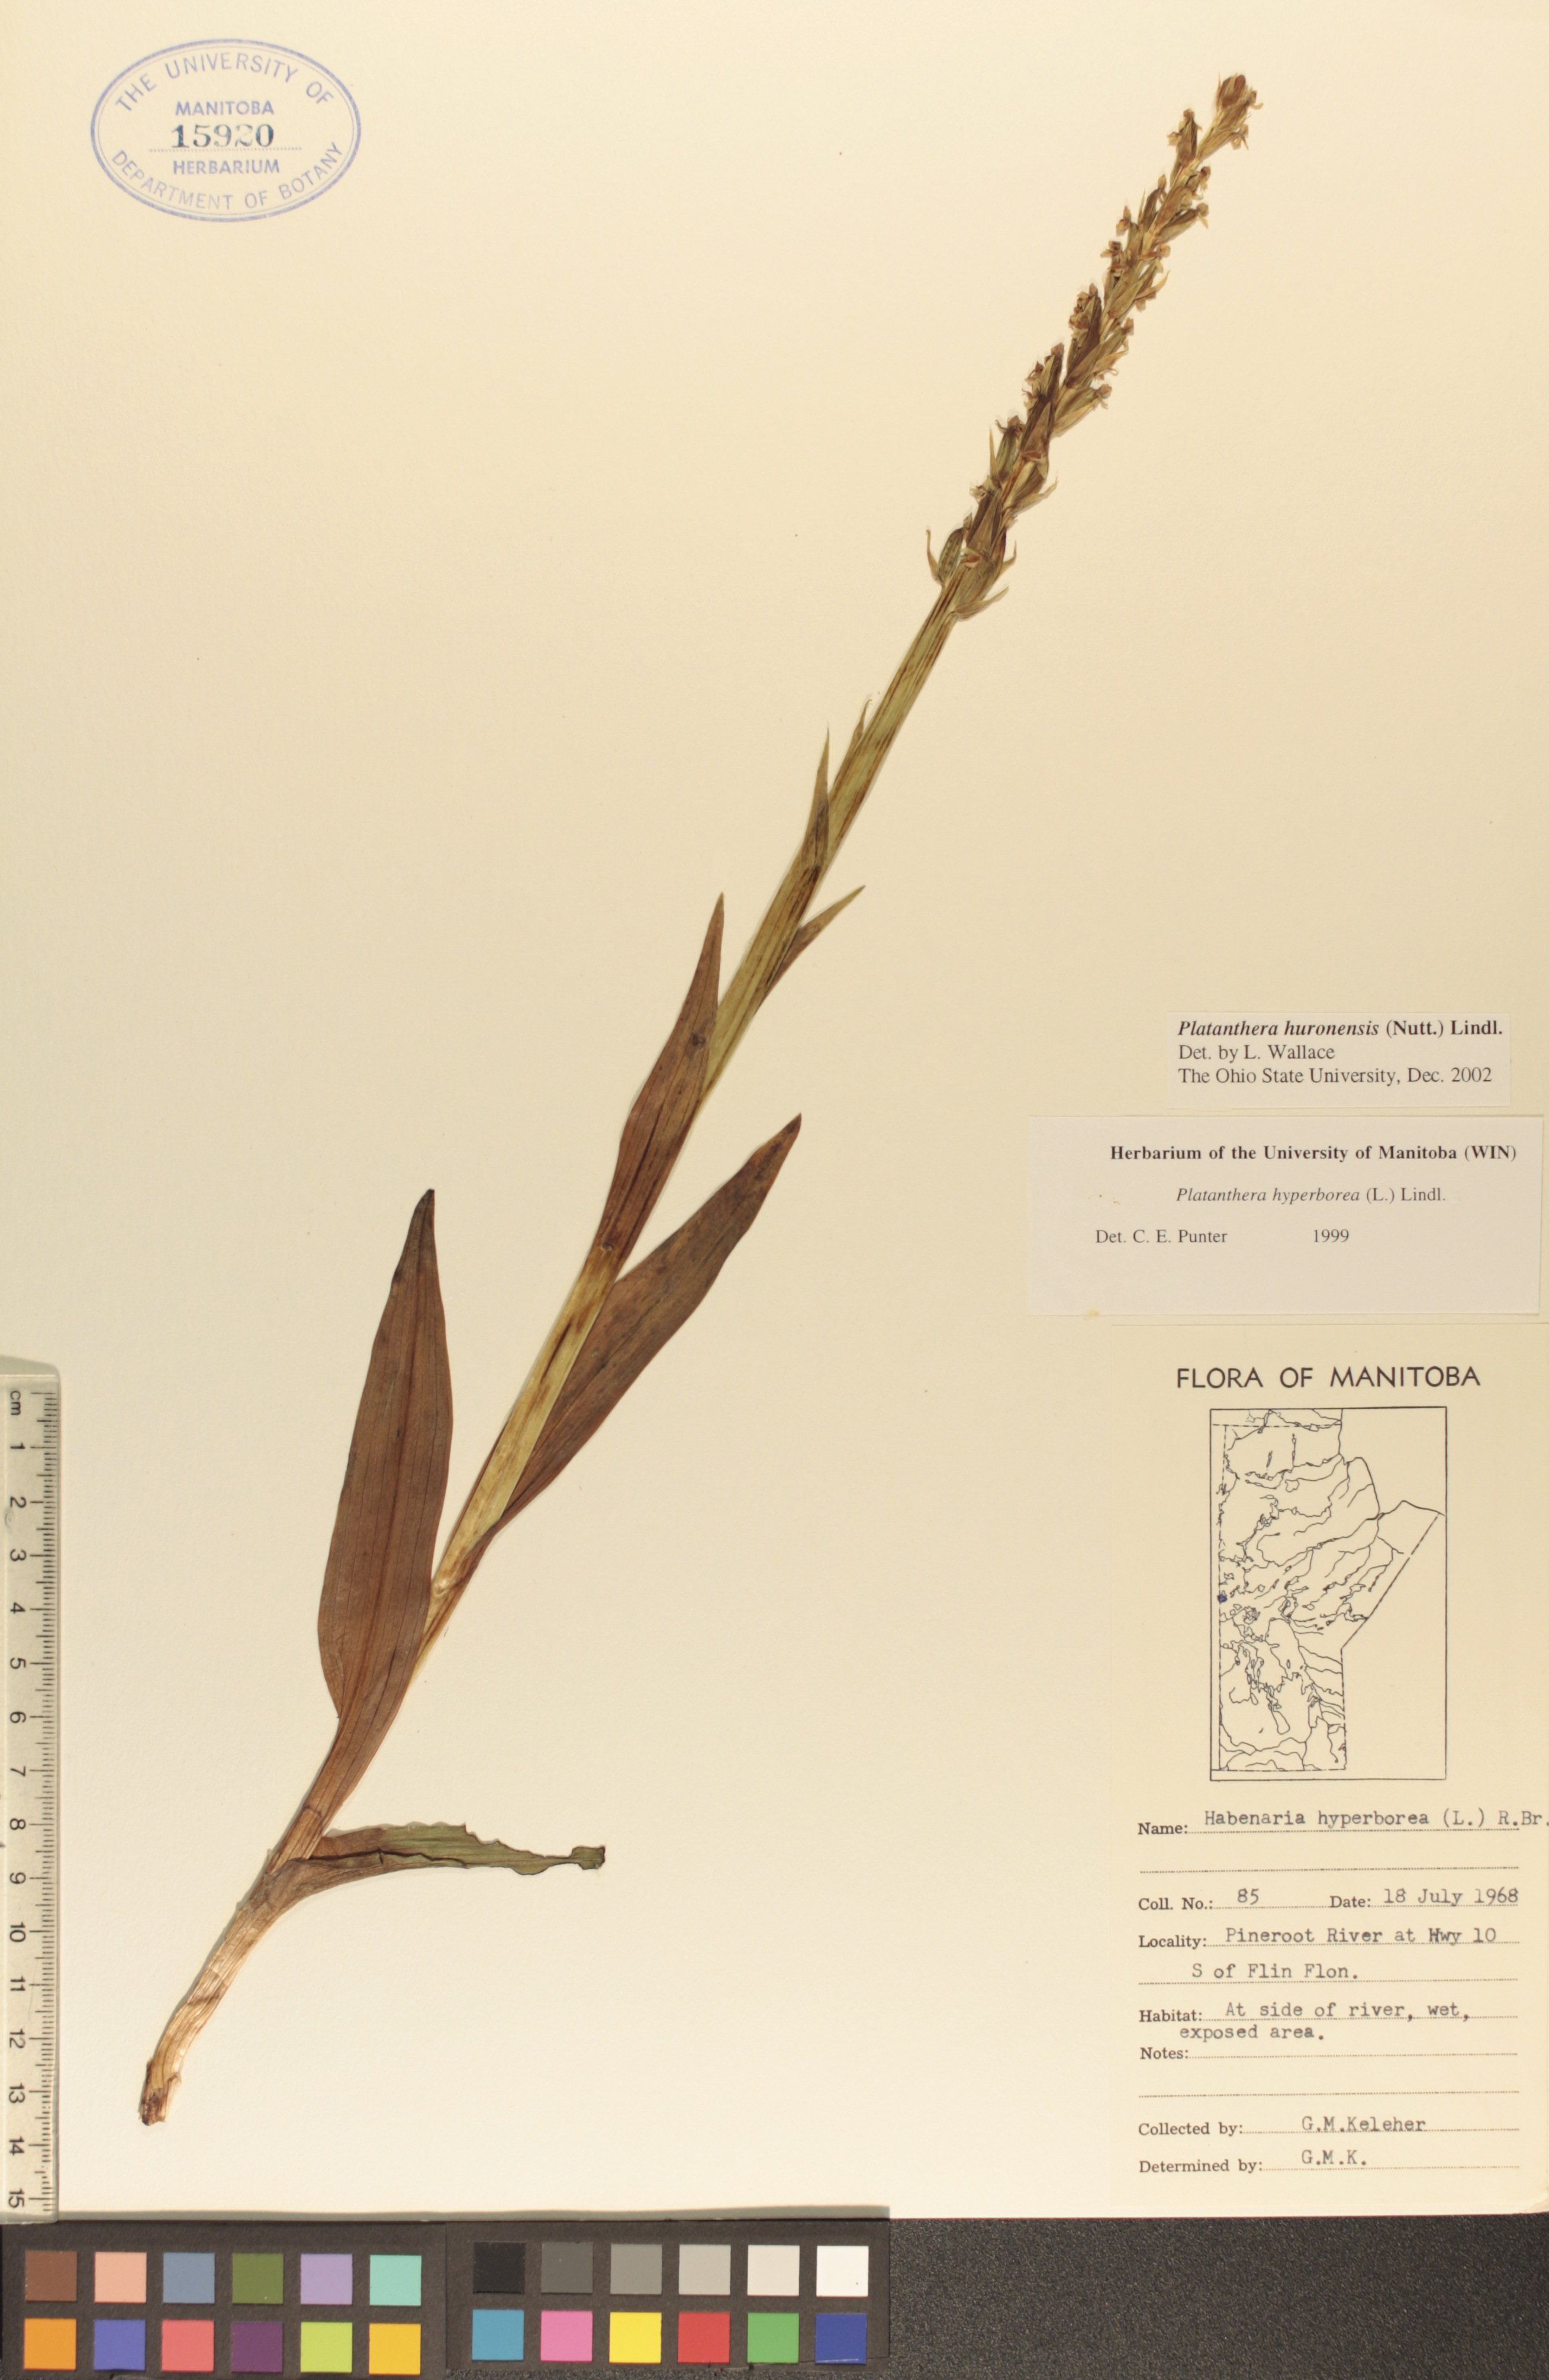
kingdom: Plantae
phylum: Tracheophyta
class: Liliopsida
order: Asparagales
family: Orchidaceae
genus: Platanthera
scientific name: Platanthera huronensis
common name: Fragrant green orchid
